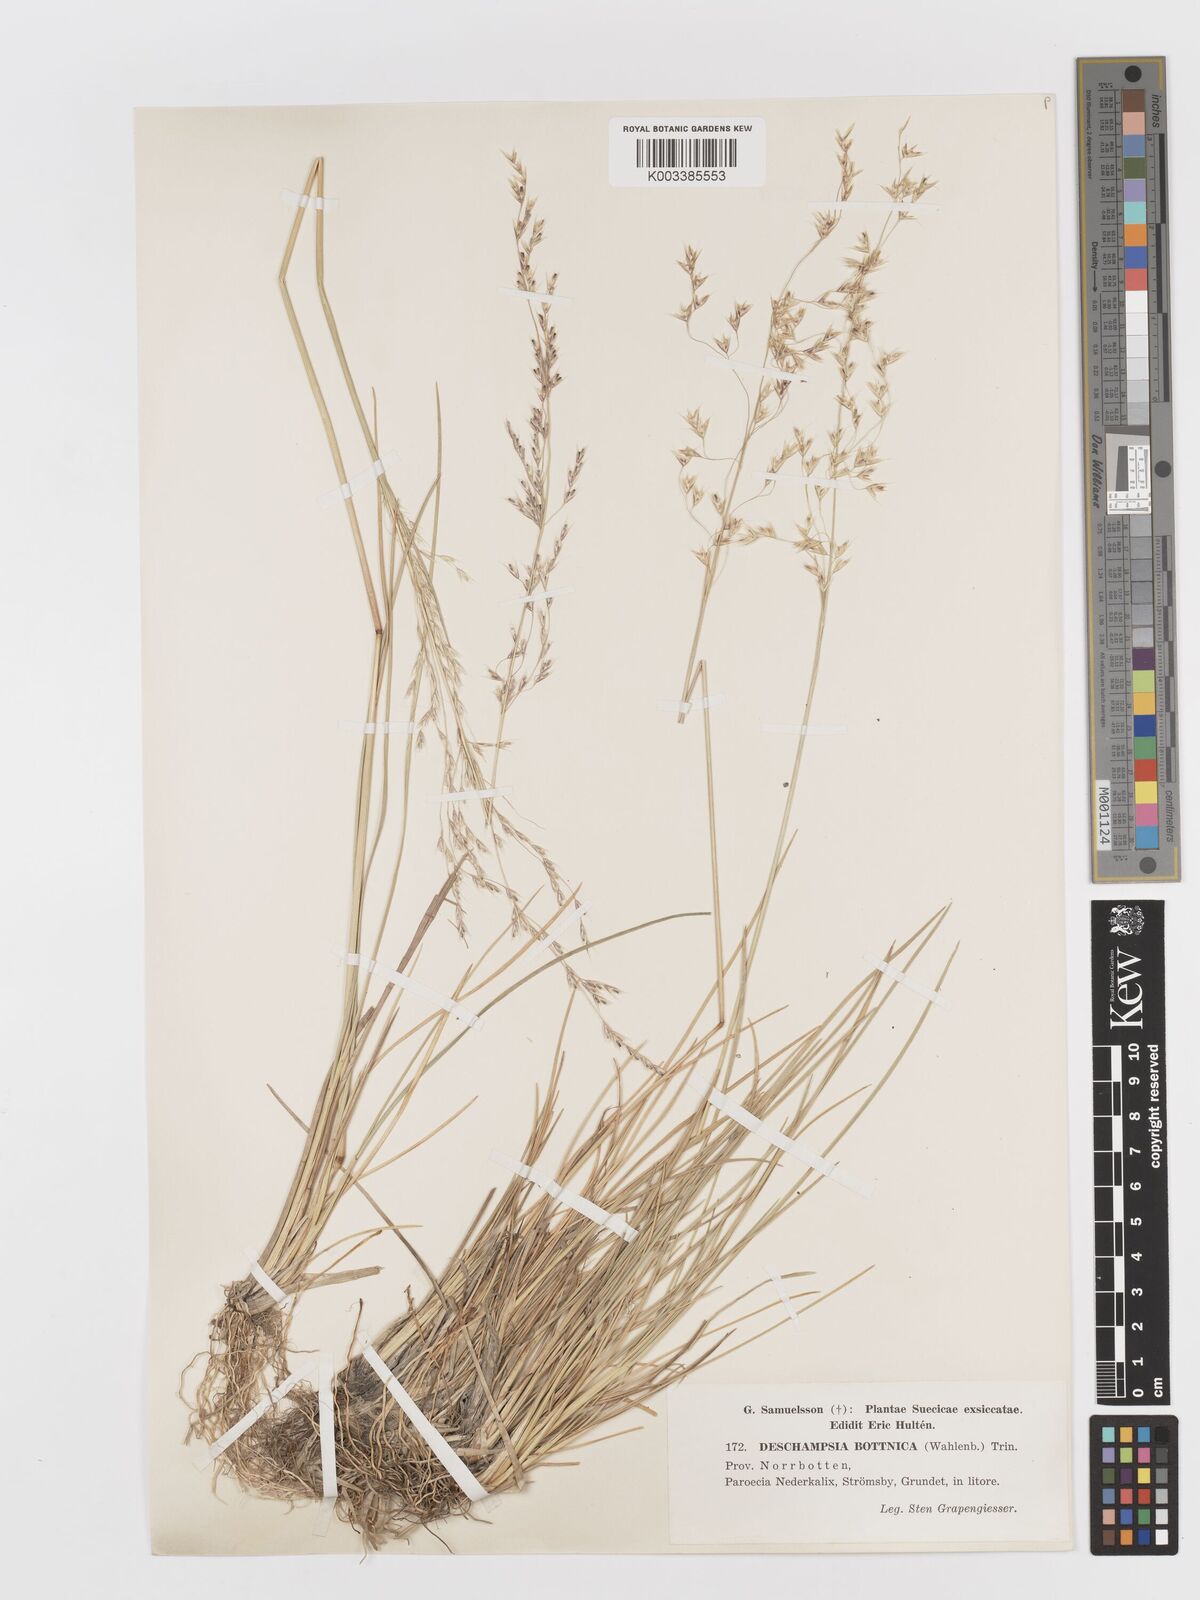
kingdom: Plantae
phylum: Tracheophyta
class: Liliopsida
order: Poales
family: Poaceae
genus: Deschampsia
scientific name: Deschampsia cespitosa
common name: Tufted hair-grass
